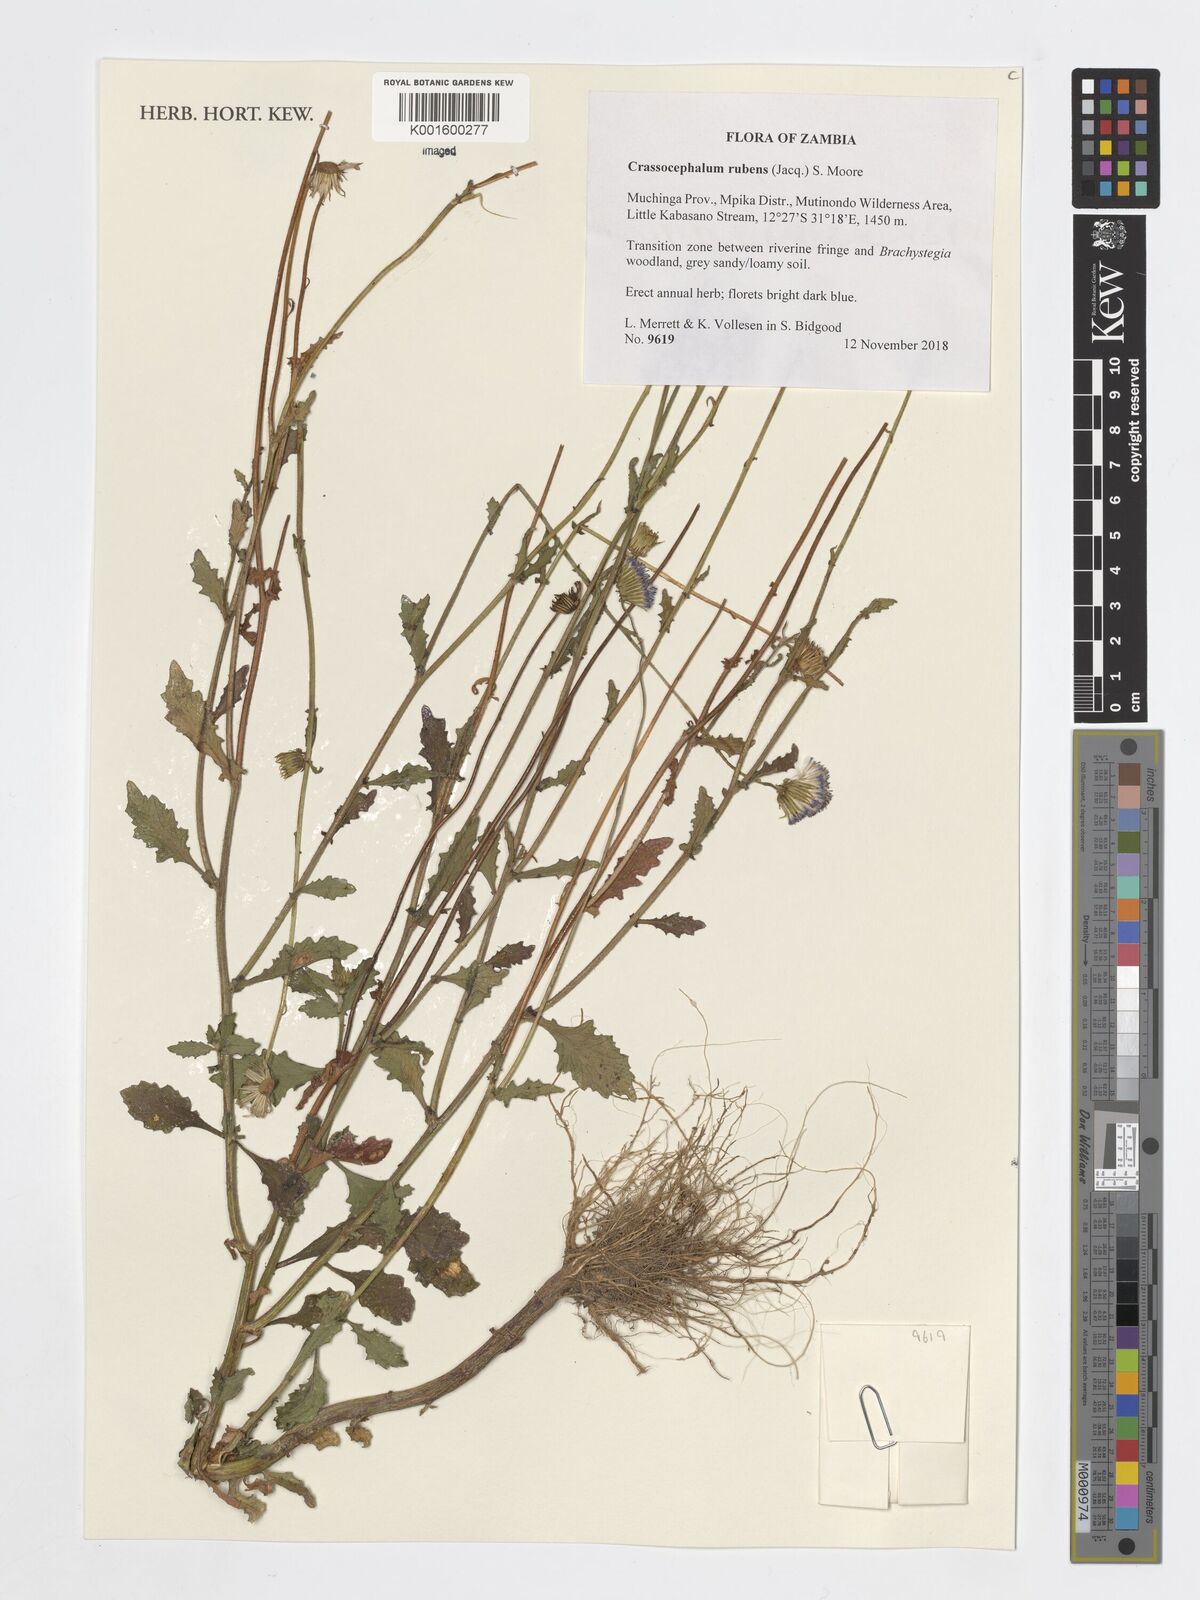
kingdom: Plantae
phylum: Tracheophyta
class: Magnoliopsida
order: Asterales
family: Asteraceae
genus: Crassocephalum
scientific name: Crassocephalum rubens
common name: Yoruban bologi
